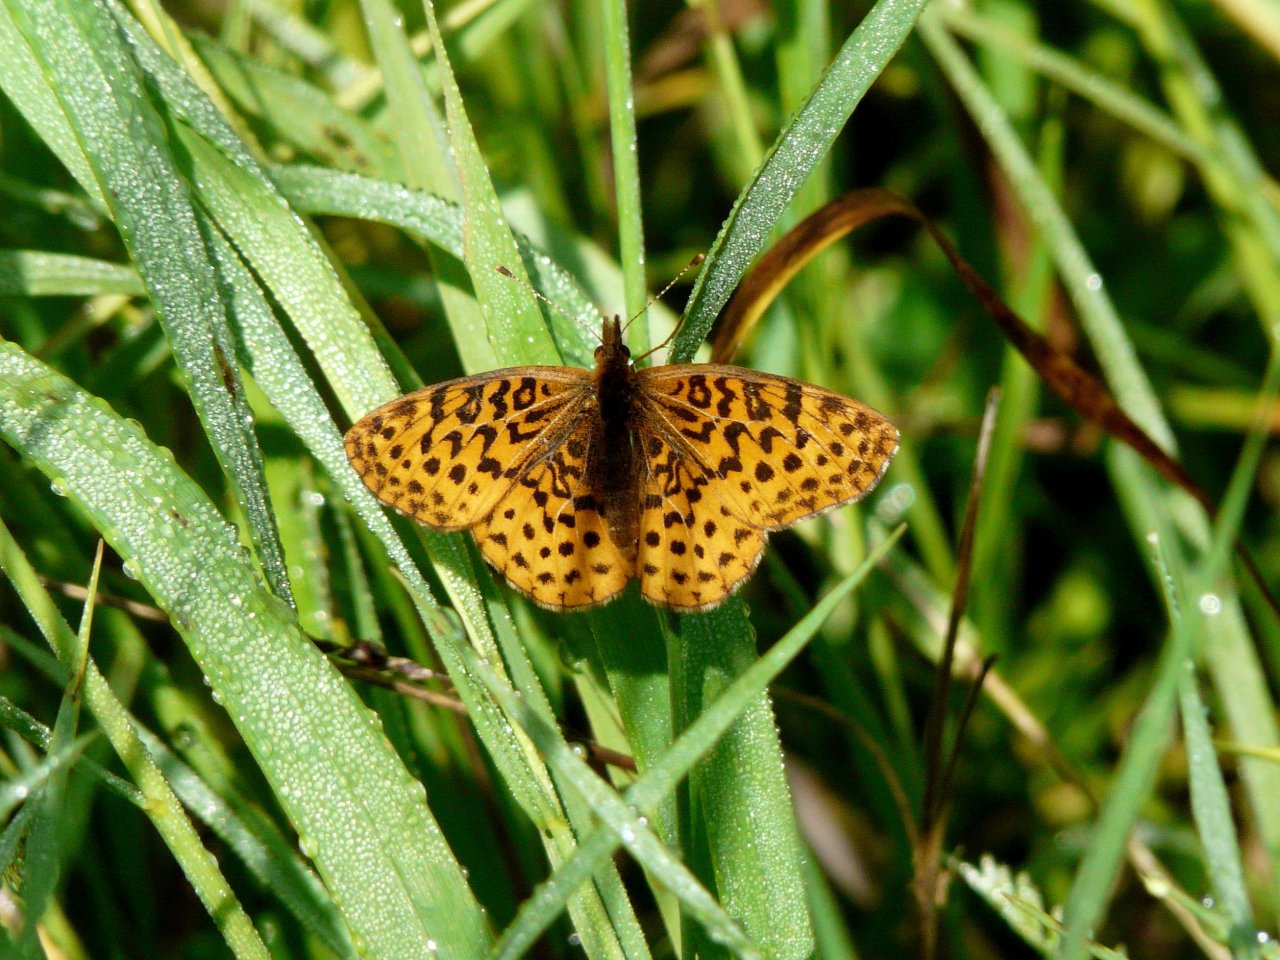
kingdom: Animalia
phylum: Arthropoda
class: Insecta
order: Lepidoptera
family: Nymphalidae
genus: Clossiana
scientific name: Clossiana toddi
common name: Meadow Fritillary
